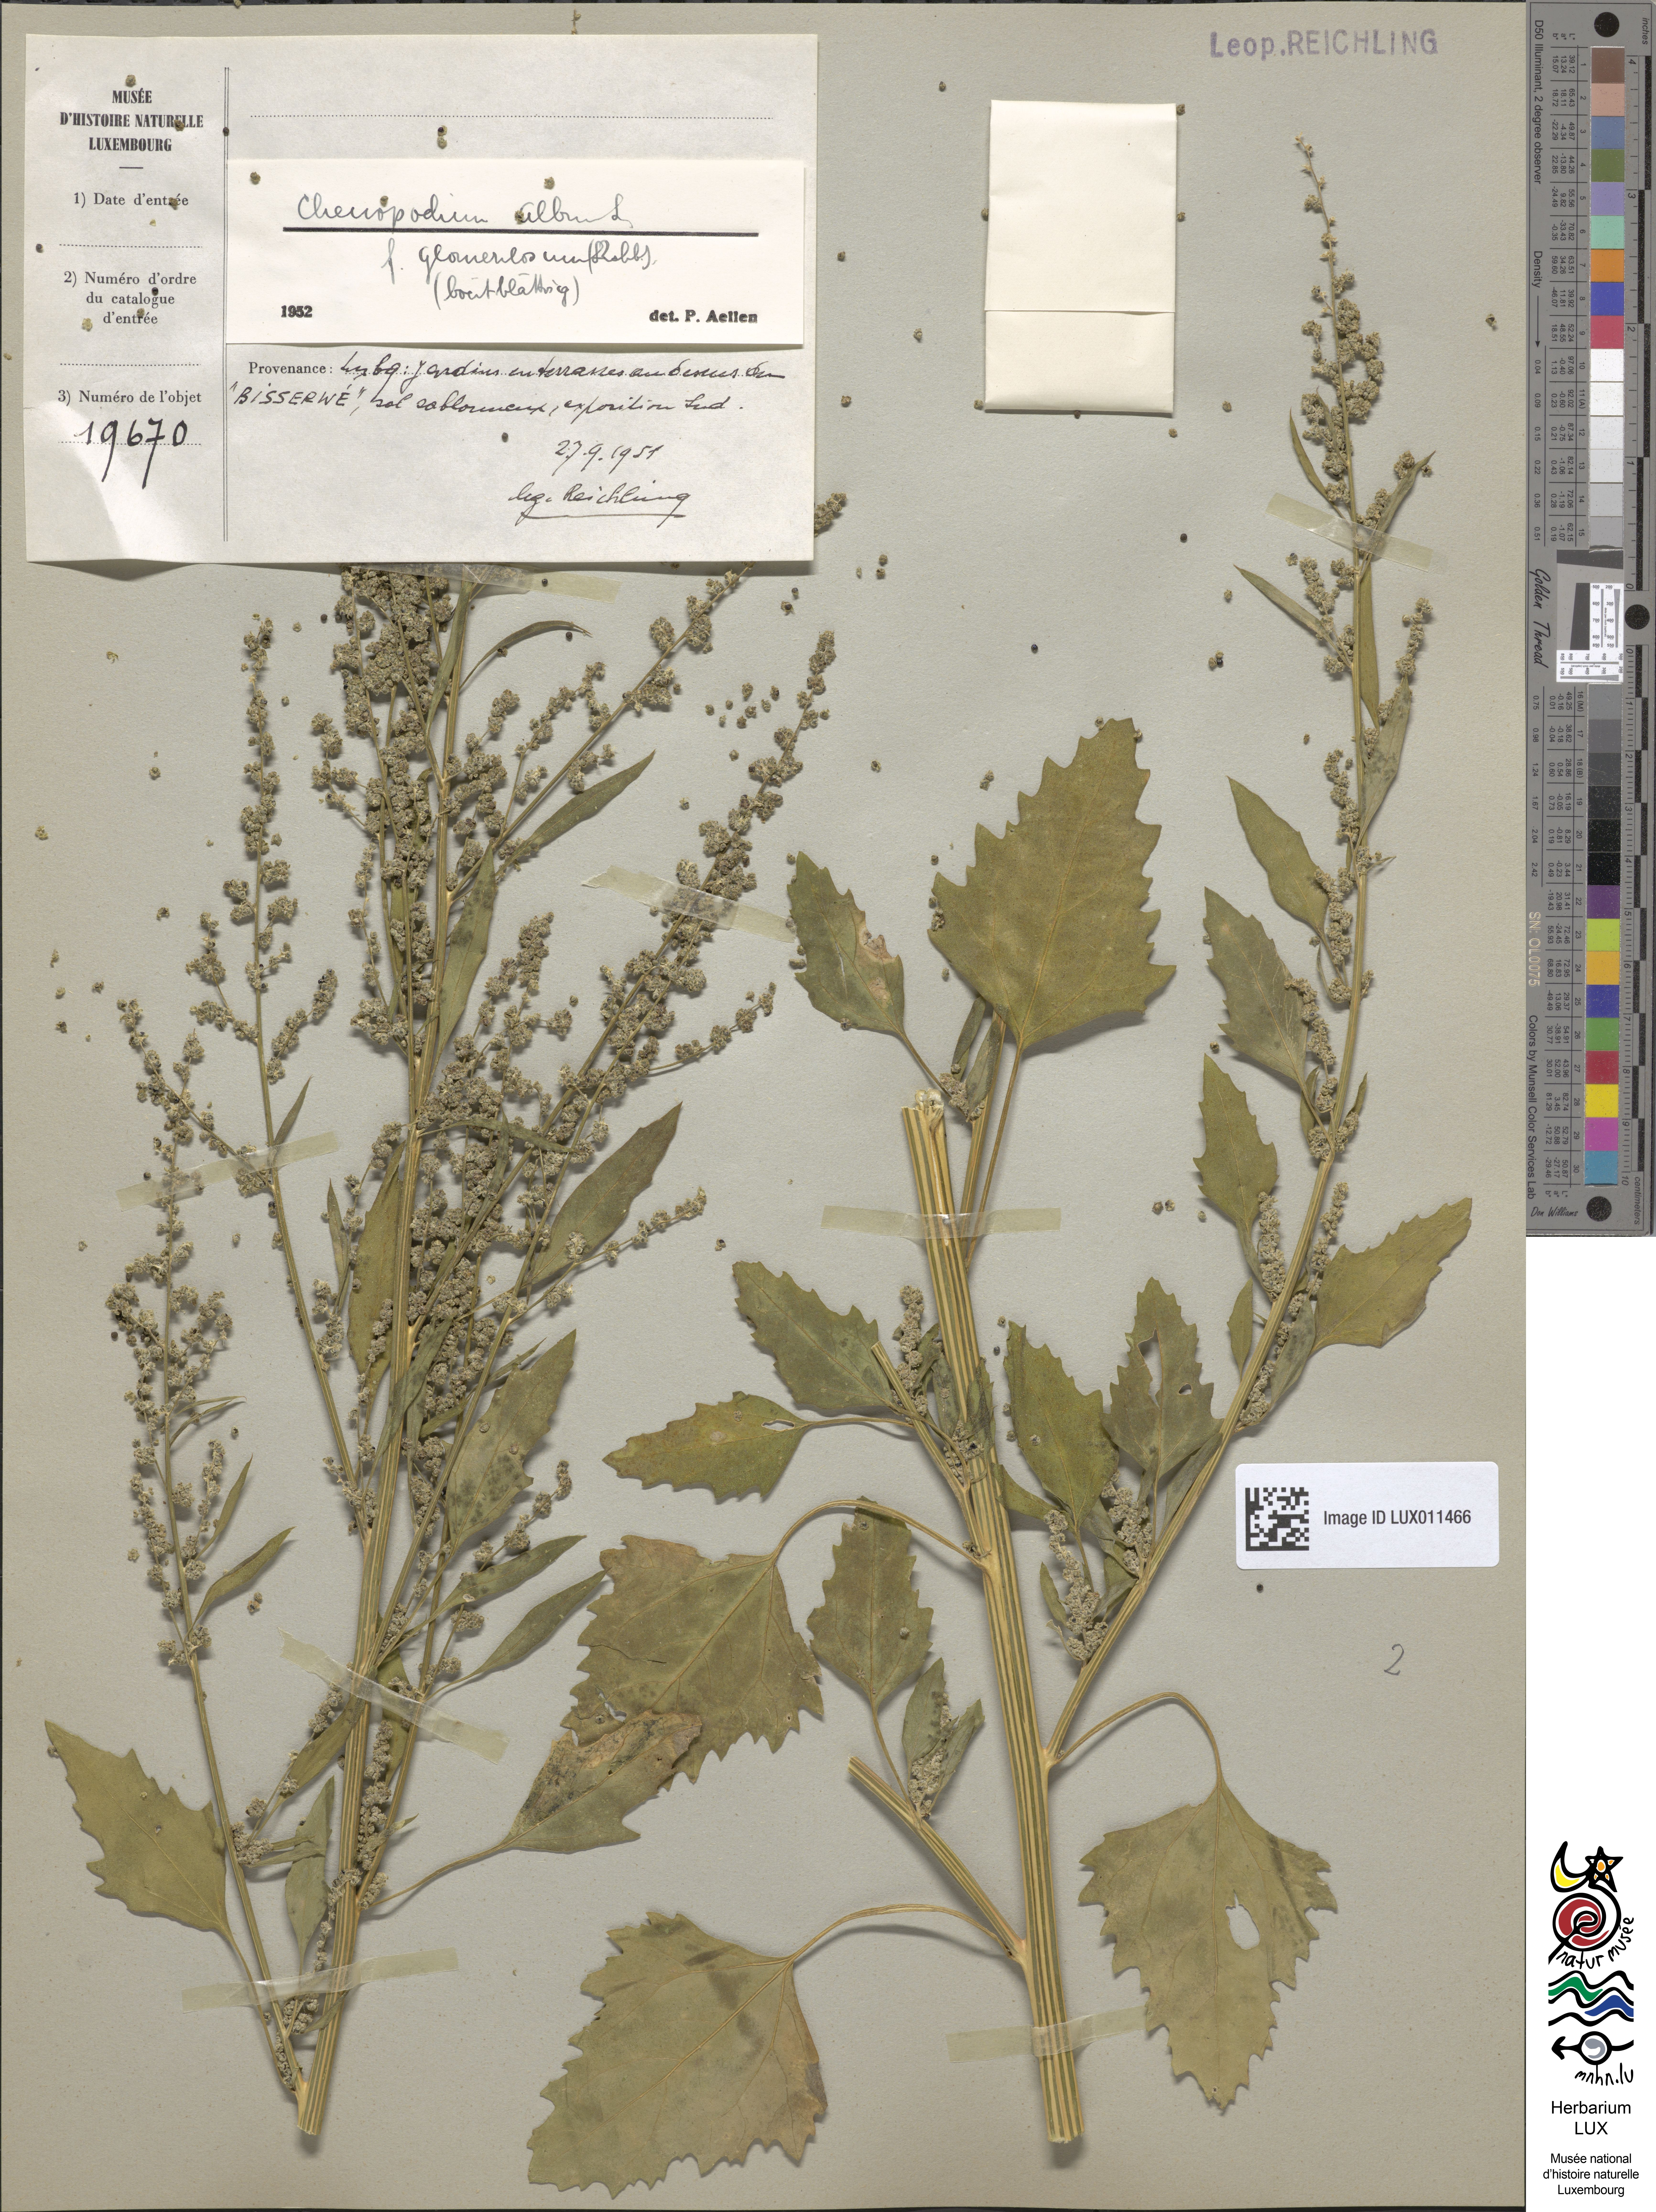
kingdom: Plantae
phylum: Tracheophyta
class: Magnoliopsida
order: Caryophyllales
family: Amaranthaceae
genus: Chenopodium
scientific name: Chenopodium album
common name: Fat-hen
